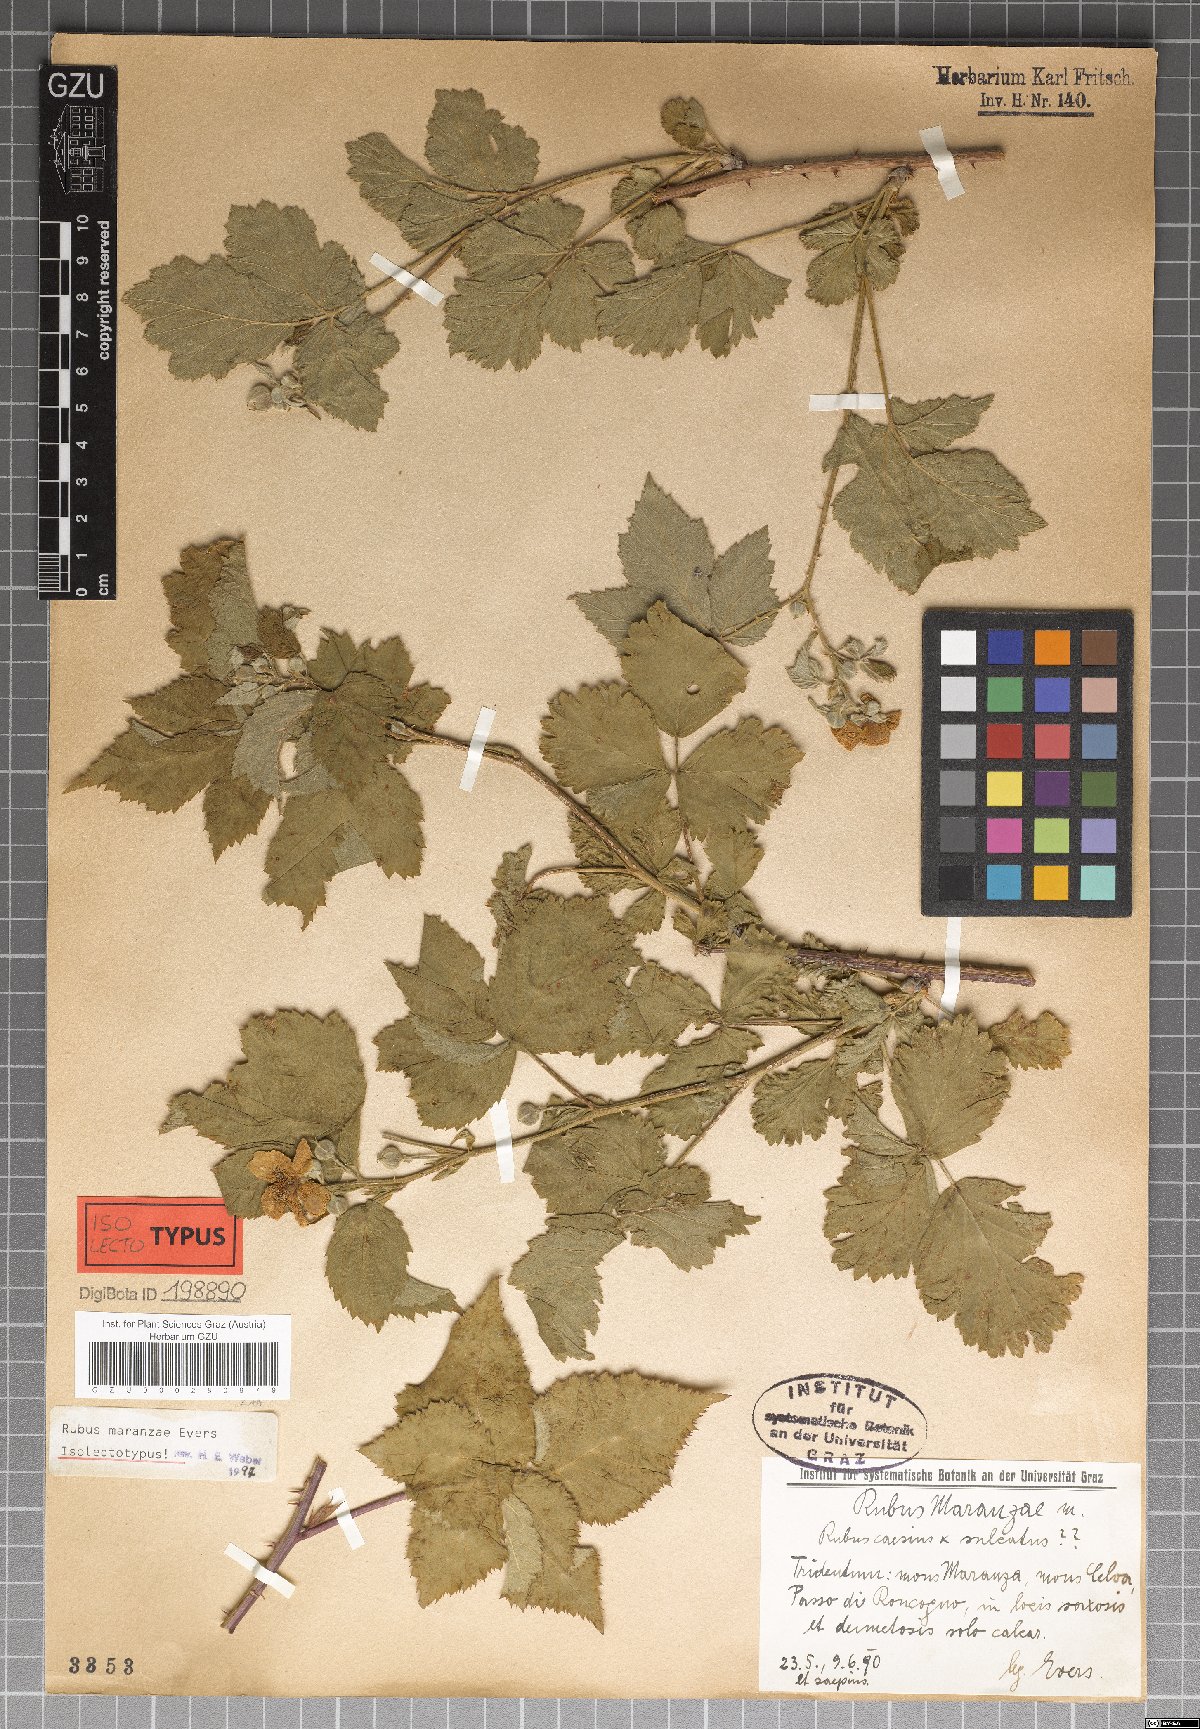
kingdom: Plantae
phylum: Tracheophyta
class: Magnoliopsida
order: Rosales
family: Rosaceae
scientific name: Rosaceae
